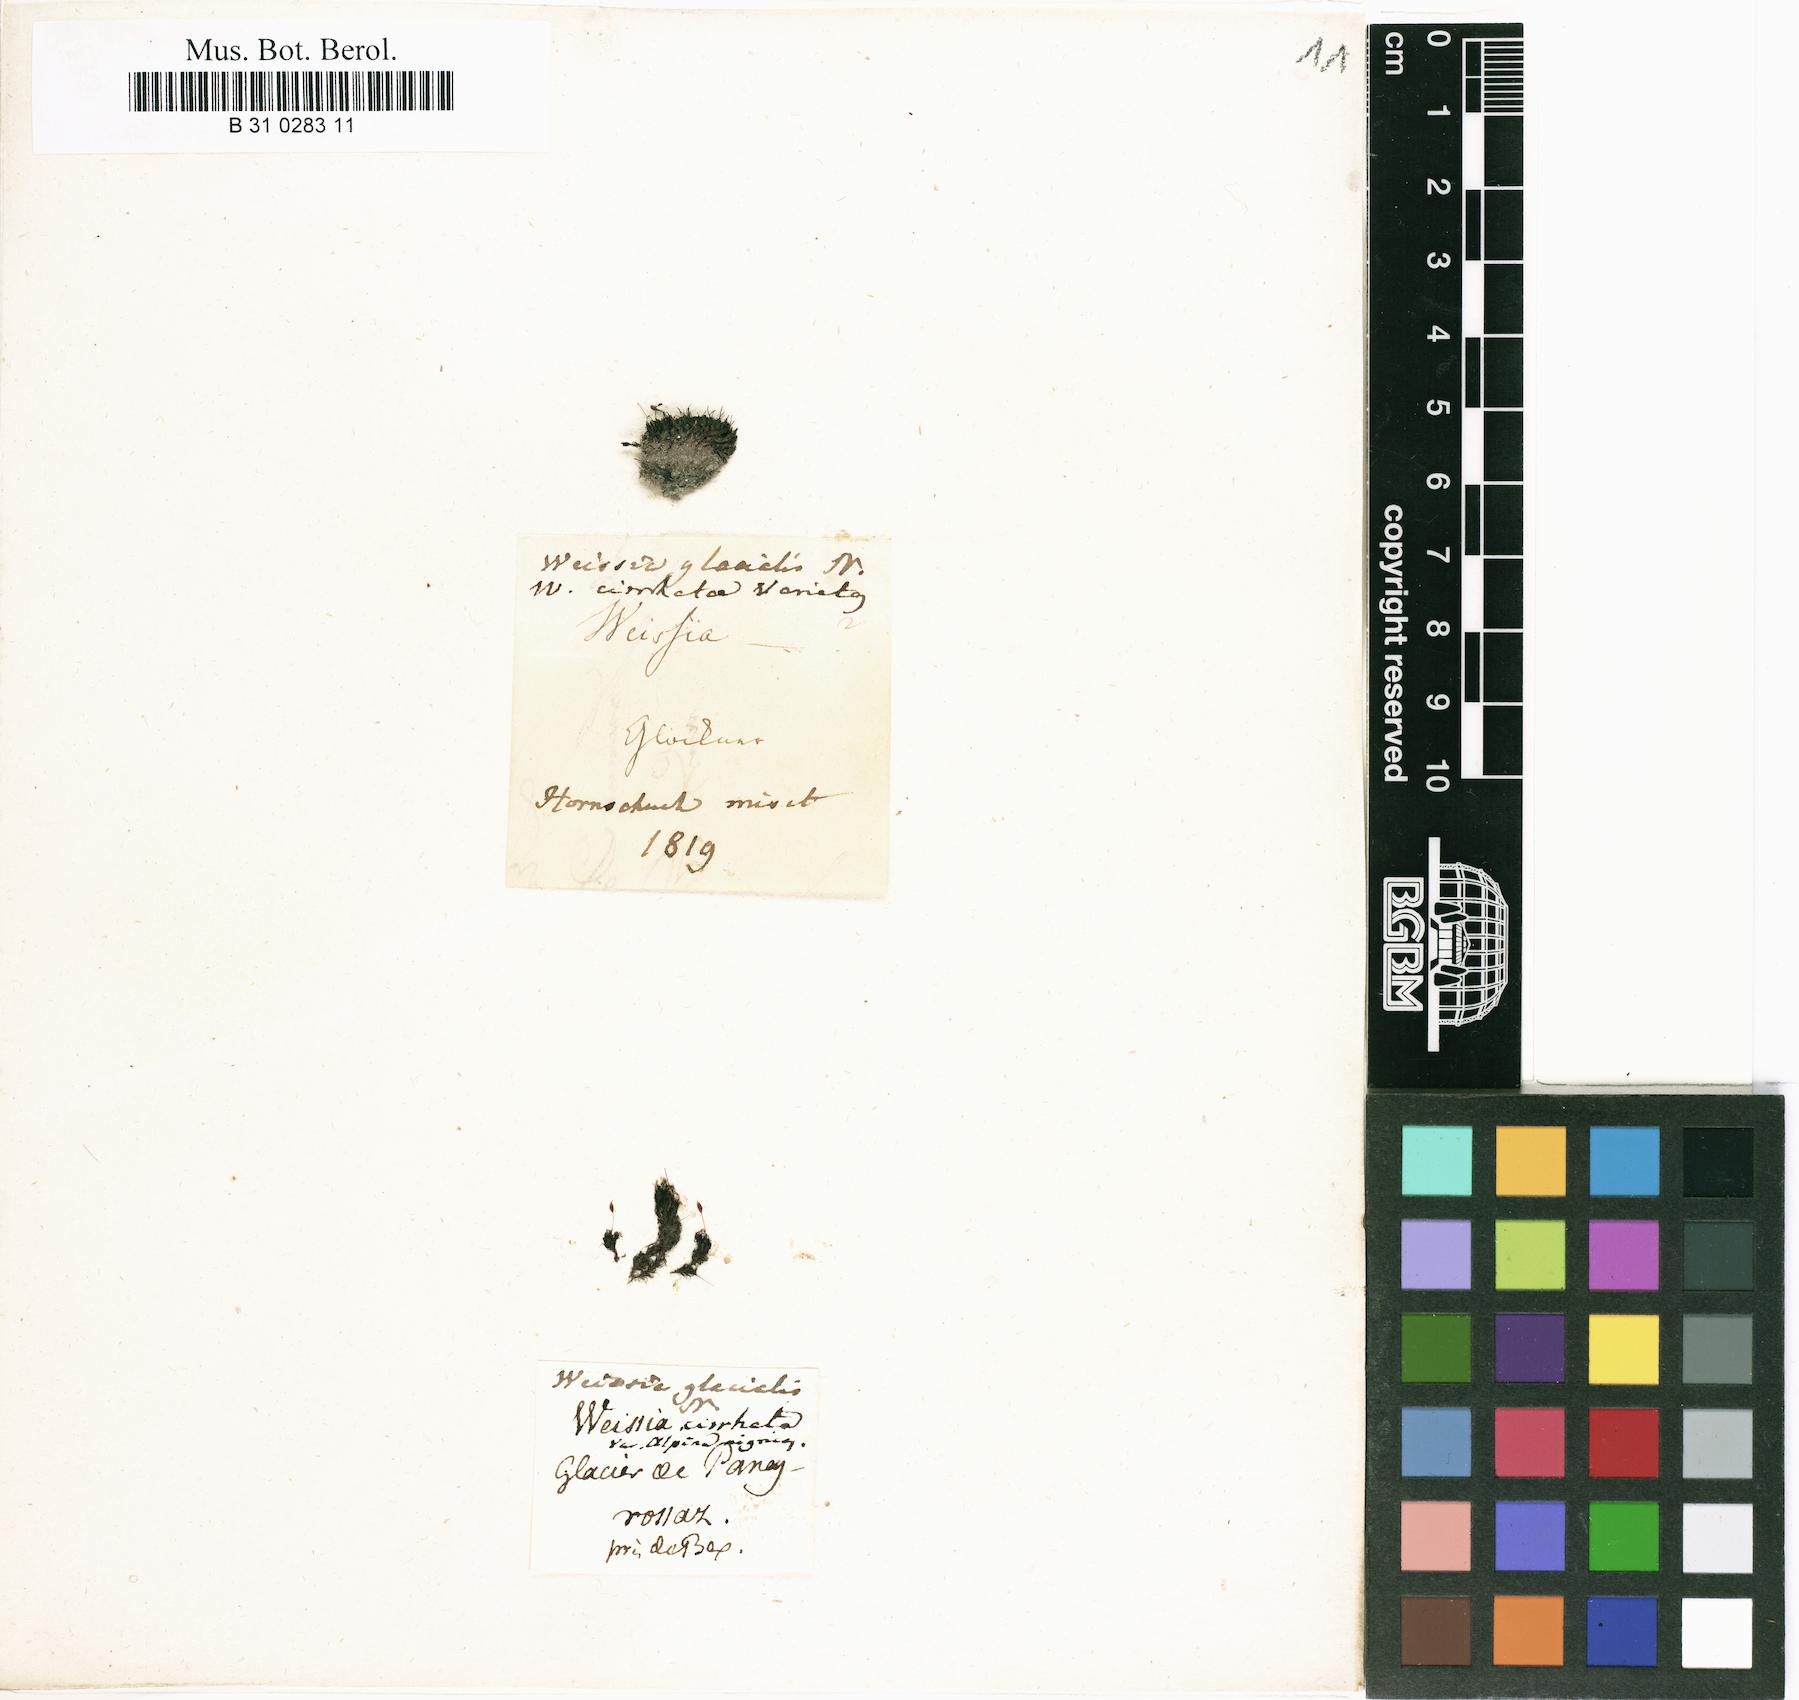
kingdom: Plantae
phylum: Bryophyta
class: Bryopsida
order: Dicranales
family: Rhabdoweisiaceae
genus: Dicranoweisia
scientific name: Dicranoweisia cirrata
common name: Common pincushion
